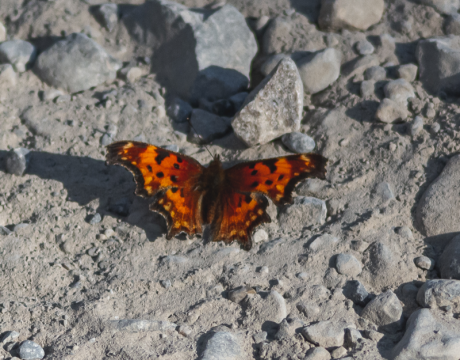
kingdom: Animalia
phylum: Arthropoda
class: Insecta
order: Lepidoptera
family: Nymphalidae
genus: Polygonia
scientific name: Polygonia gracilis
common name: Hoary Comma
